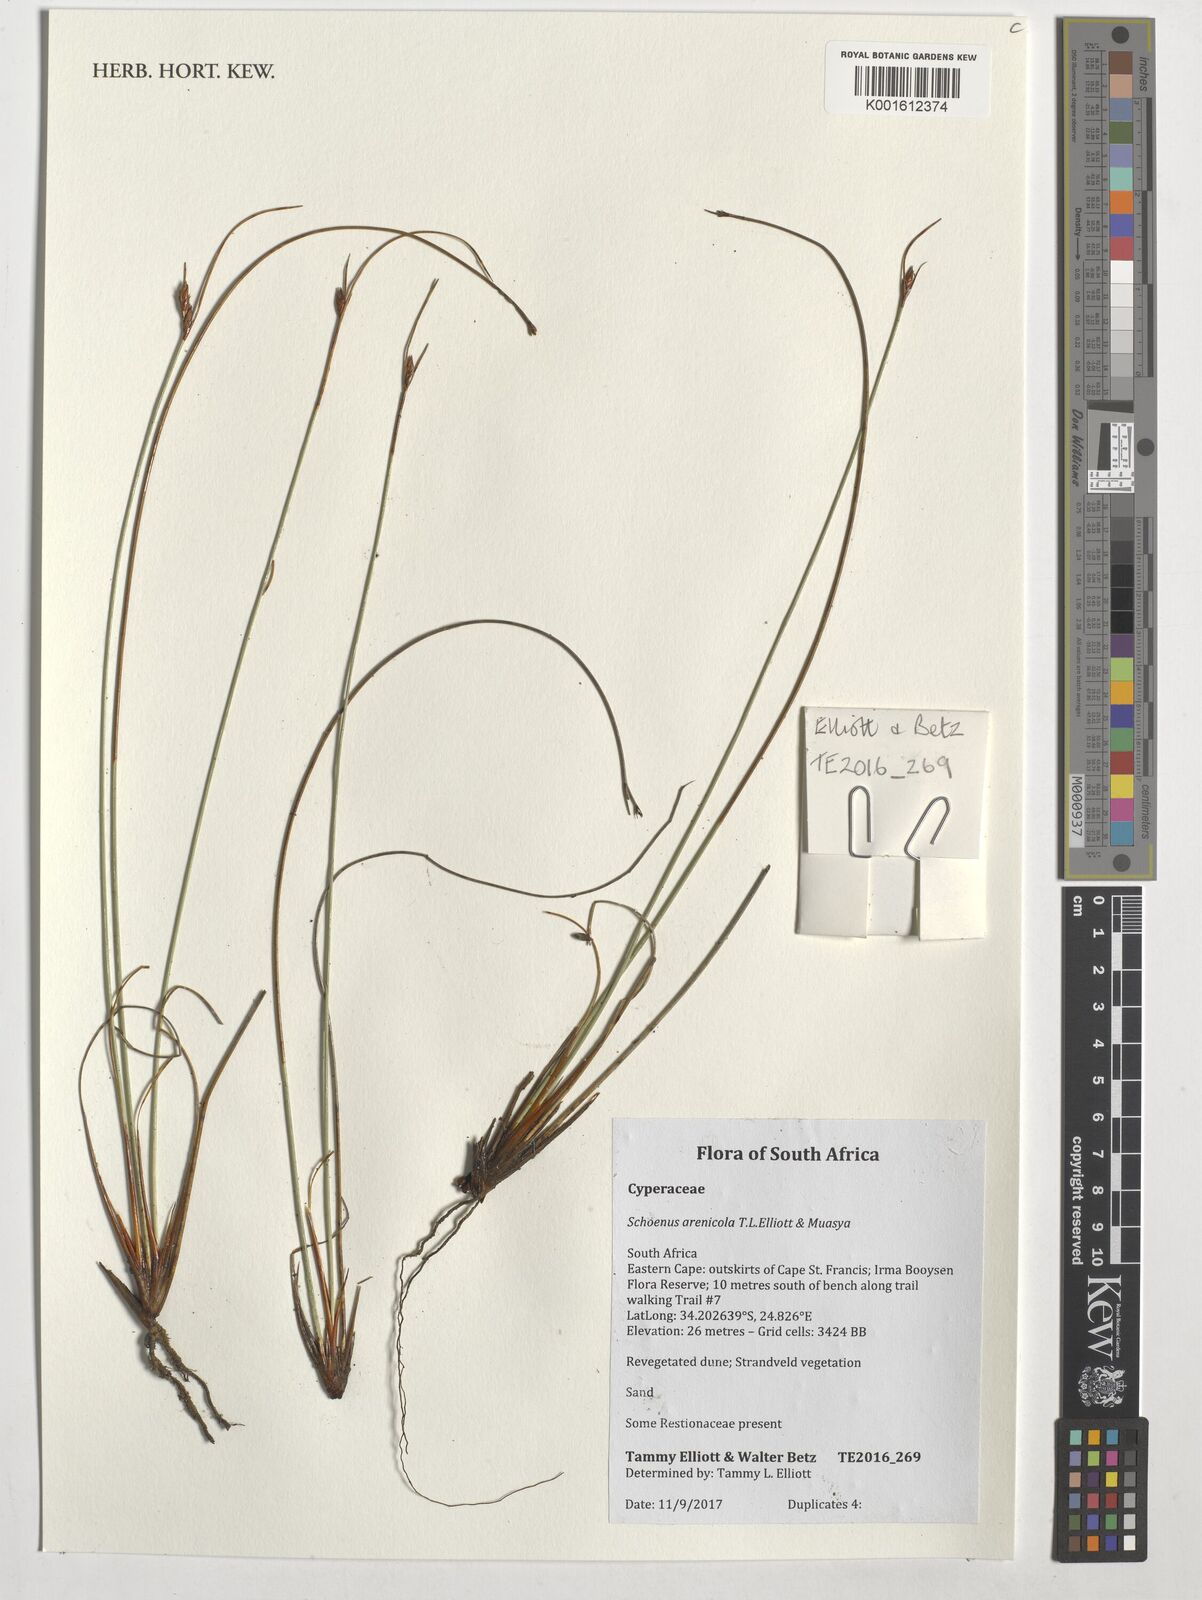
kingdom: Plantae
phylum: Tracheophyta
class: Liliopsida
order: Poales
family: Cyperaceae
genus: Schoenus
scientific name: Schoenus arenicola
